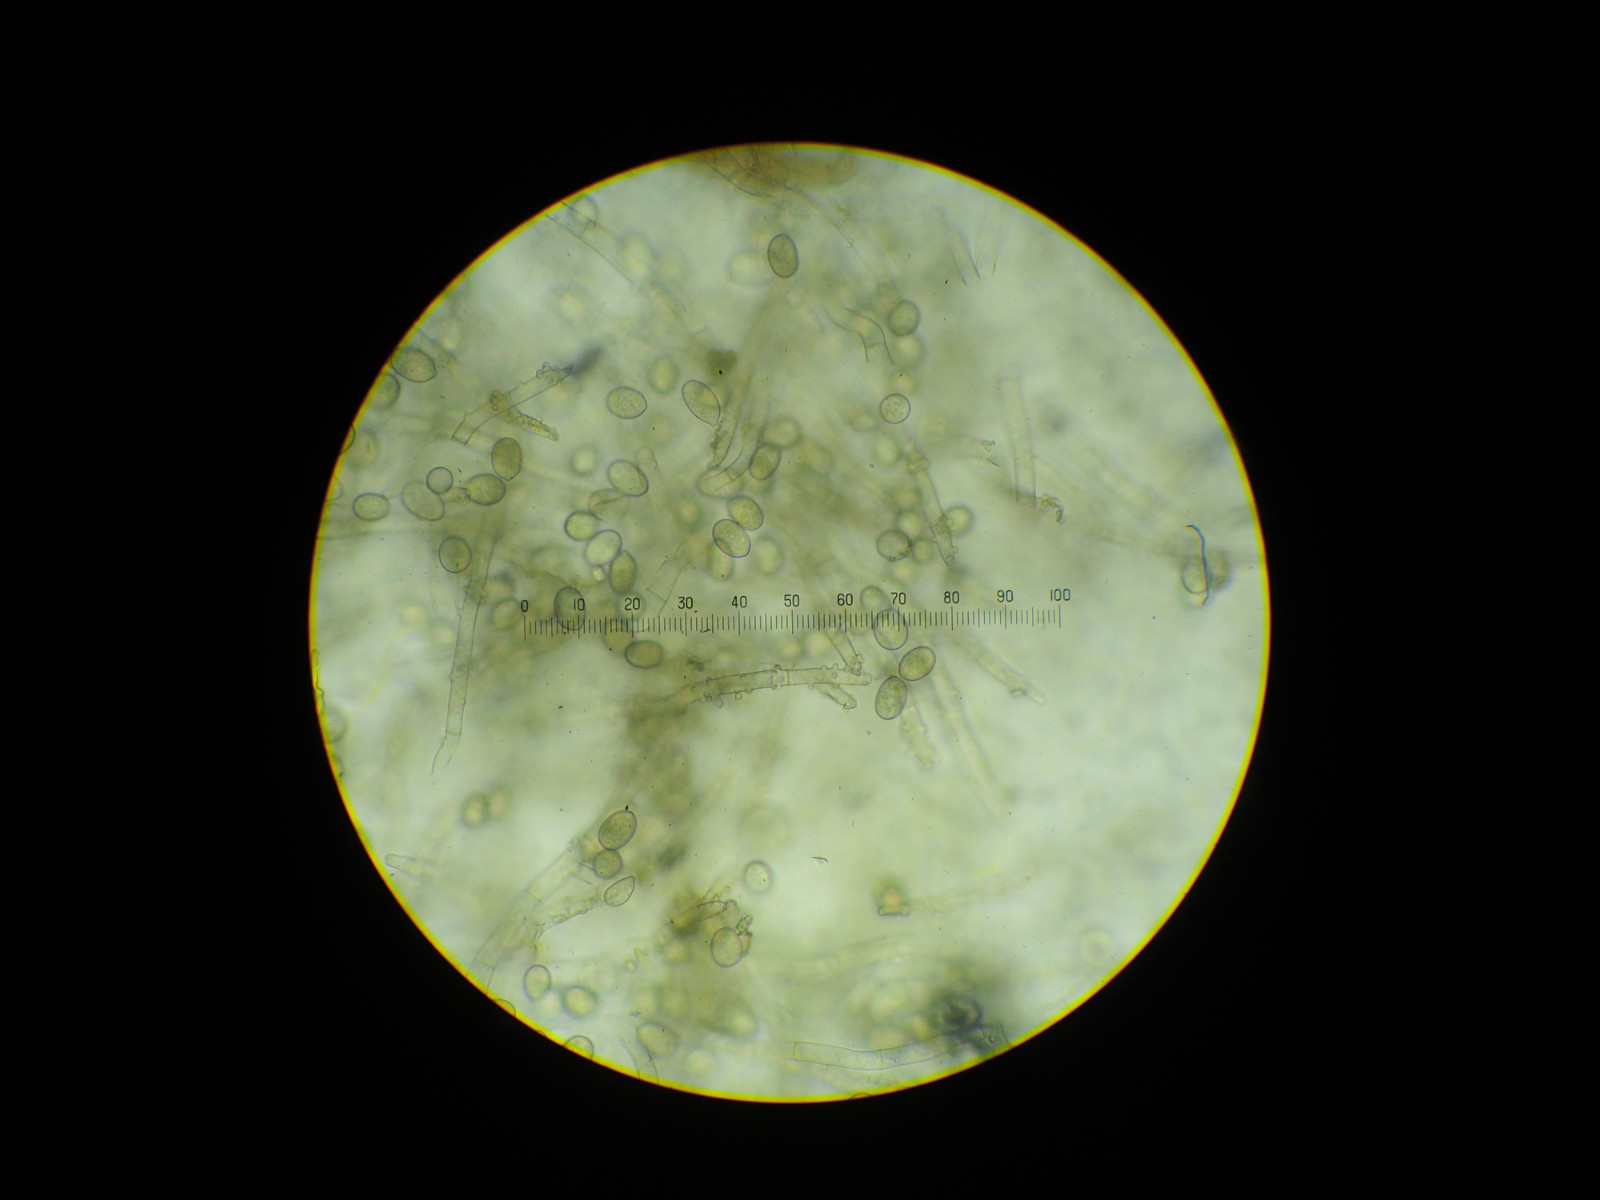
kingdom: Fungi
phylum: Basidiomycota
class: Agaricomycetes
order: Cantharellales
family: Botryobasidiaceae
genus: Botryobasidium
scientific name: Botryobasidium conspersum
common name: olivengrå spindhinde
